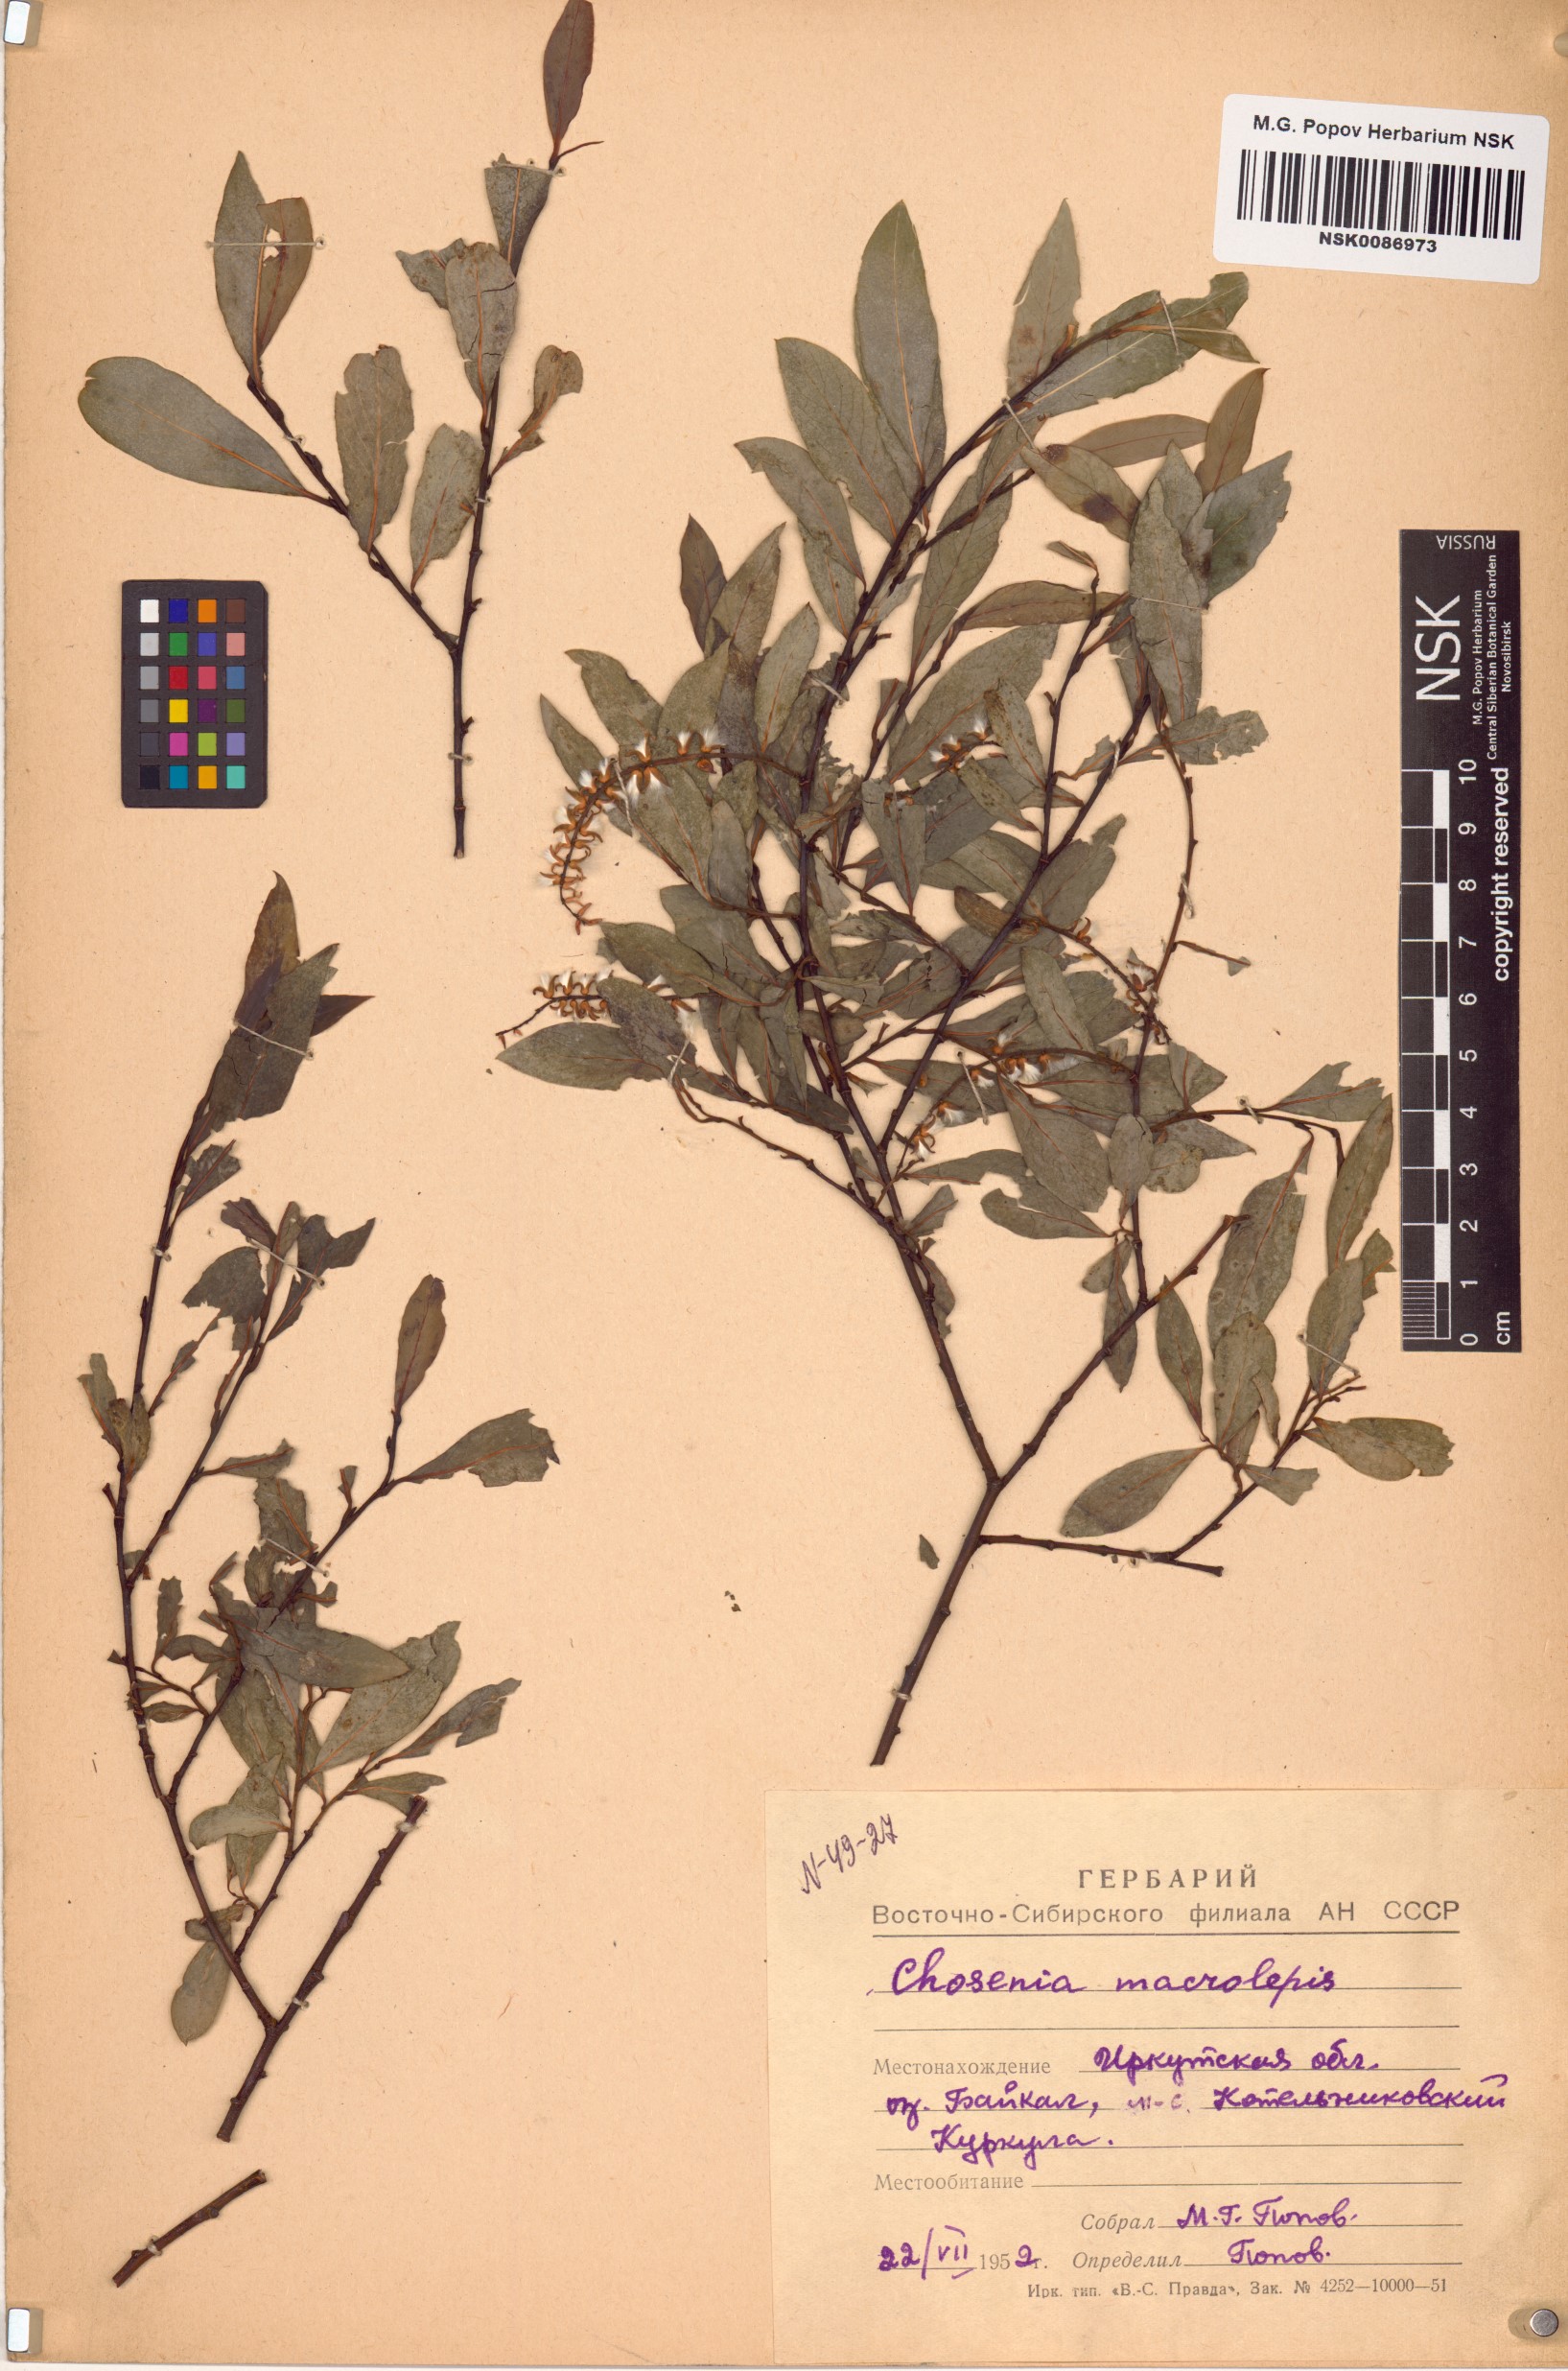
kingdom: Plantae
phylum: Tracheophyta
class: Magnoliopsida
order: Malpighiales
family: Salicaceae
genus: Chosenia
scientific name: Chosenia arbutifolia
